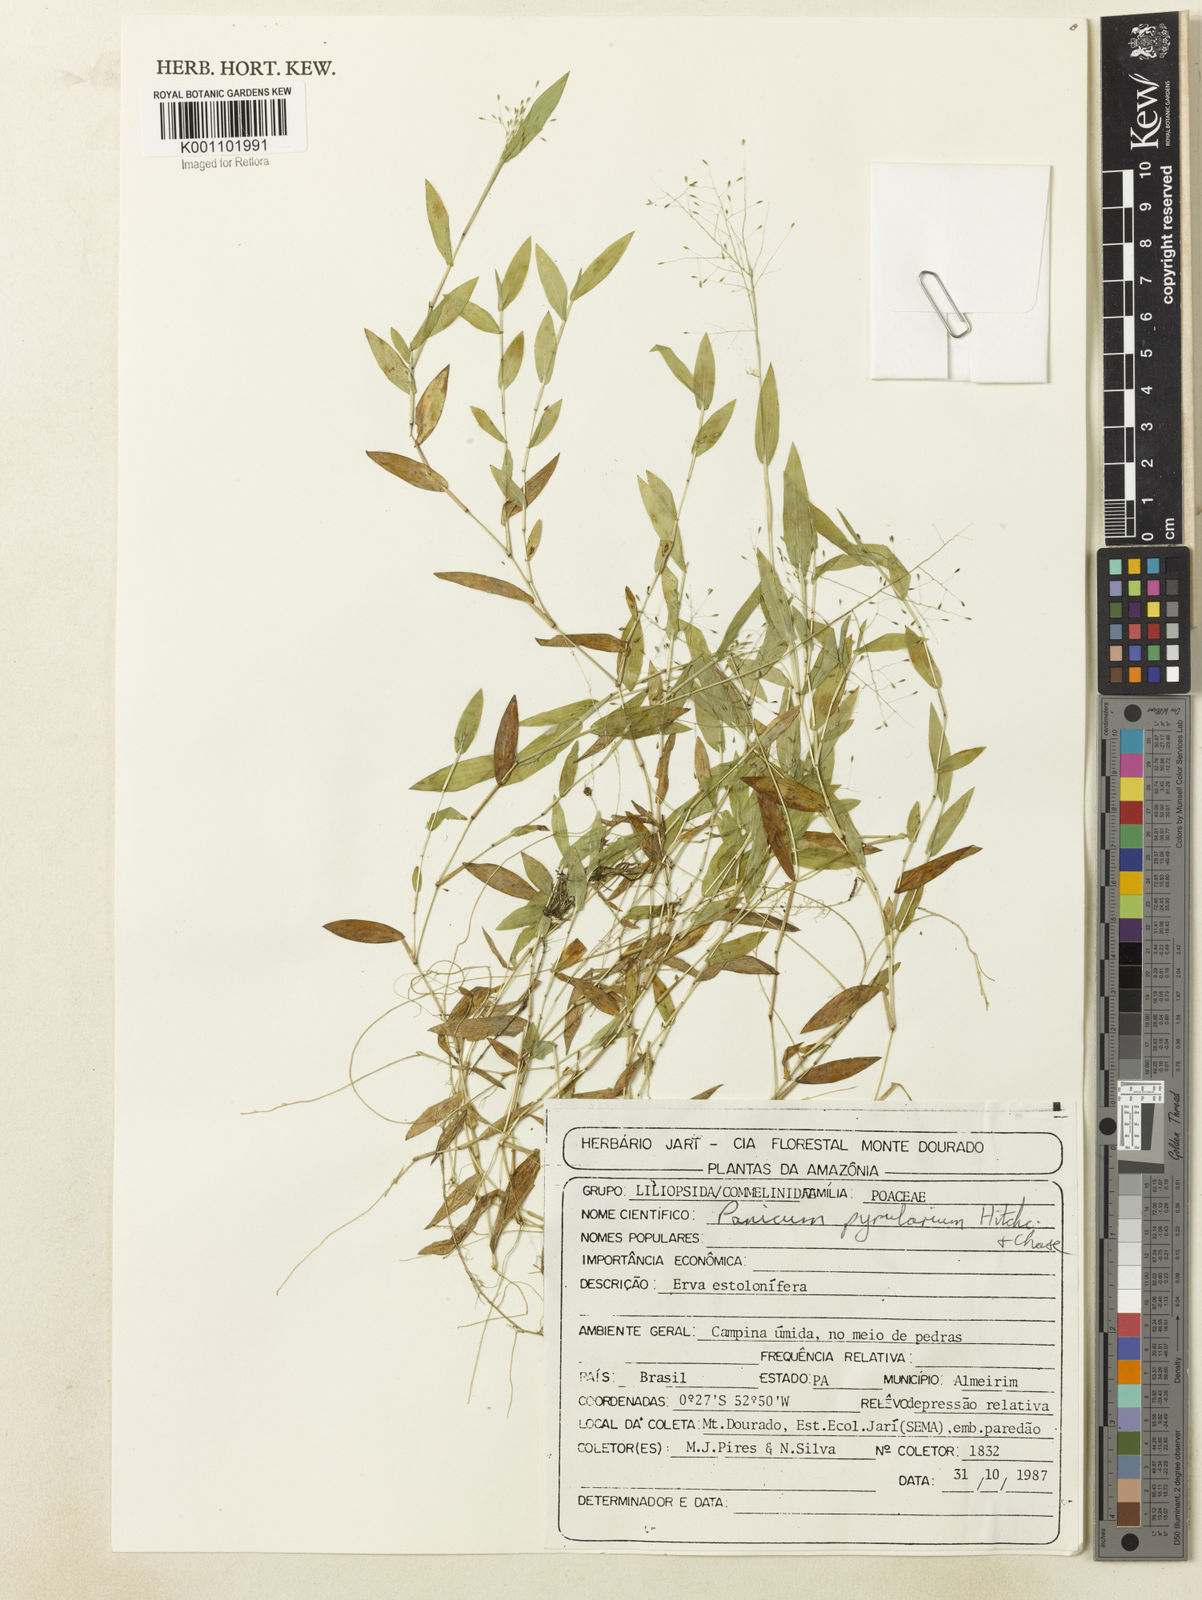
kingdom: Plantae
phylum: Tracheophyta
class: Liliopsida
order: Poales
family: Poaceae
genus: Trichanthecium
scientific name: Trichanthecium pyrularium
